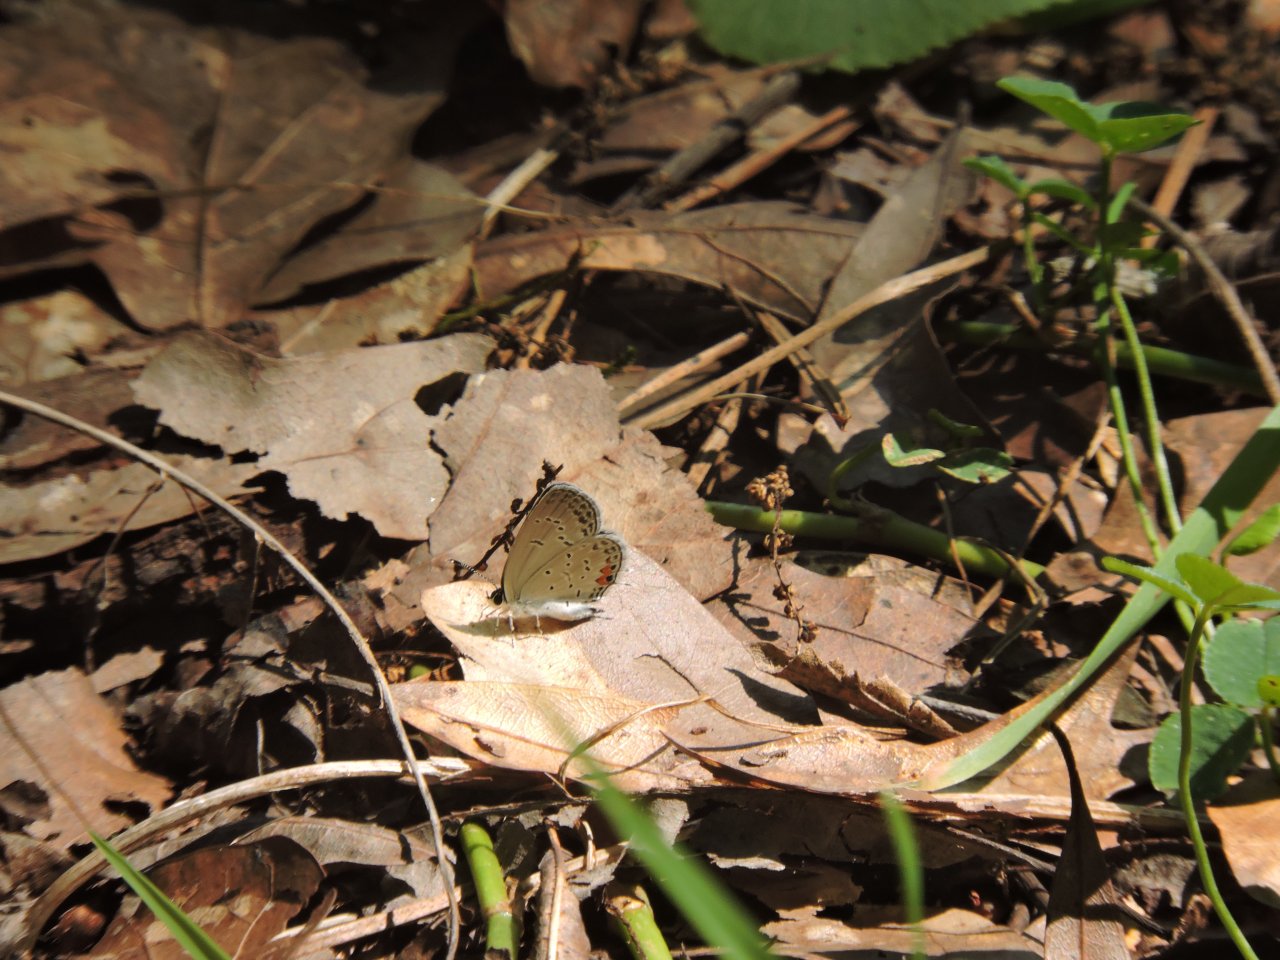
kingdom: Animalia
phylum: Arthropoda
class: Insecta
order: Lepidoptera
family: Lycaenidae
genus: Elkalyce
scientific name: Elkalyce comyntas
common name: Eastern Tailed-Blue
